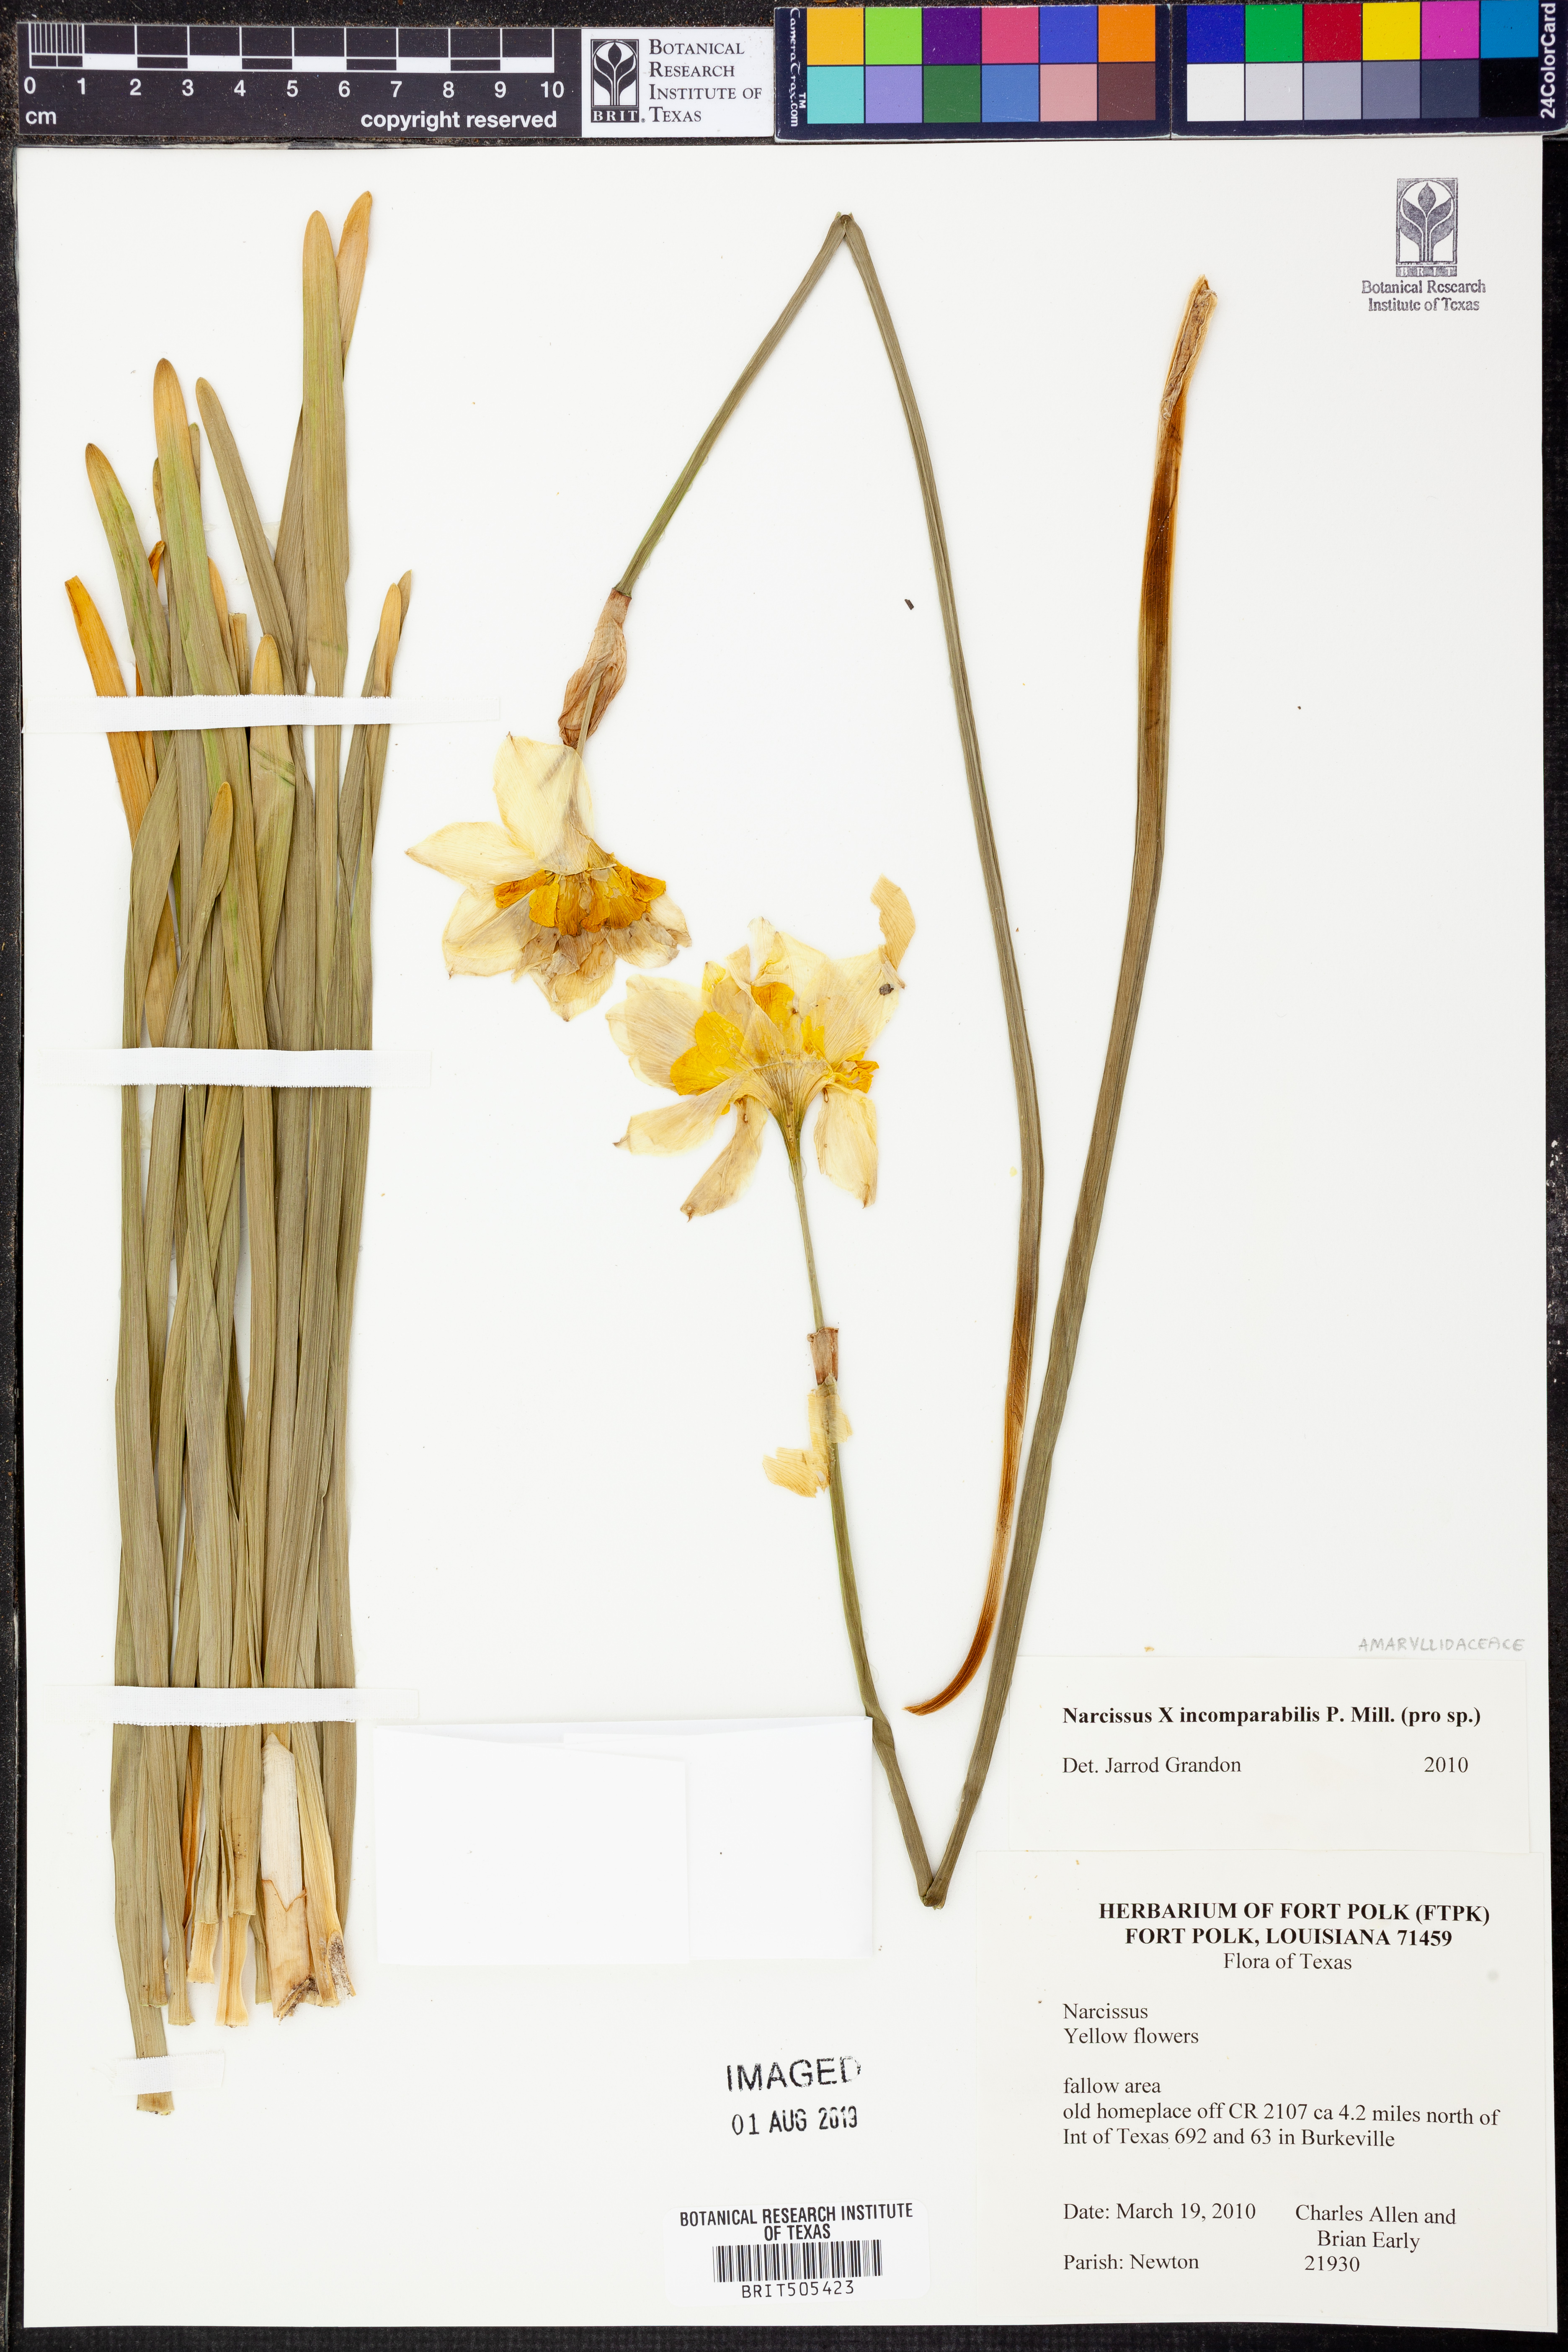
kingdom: Plantae
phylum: Tracheophyta
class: Liliopsida
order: Asparagales
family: Amaryllidaceae
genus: Narcissus
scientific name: Narcissus incomparabilis
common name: Nonesuch daffodil
